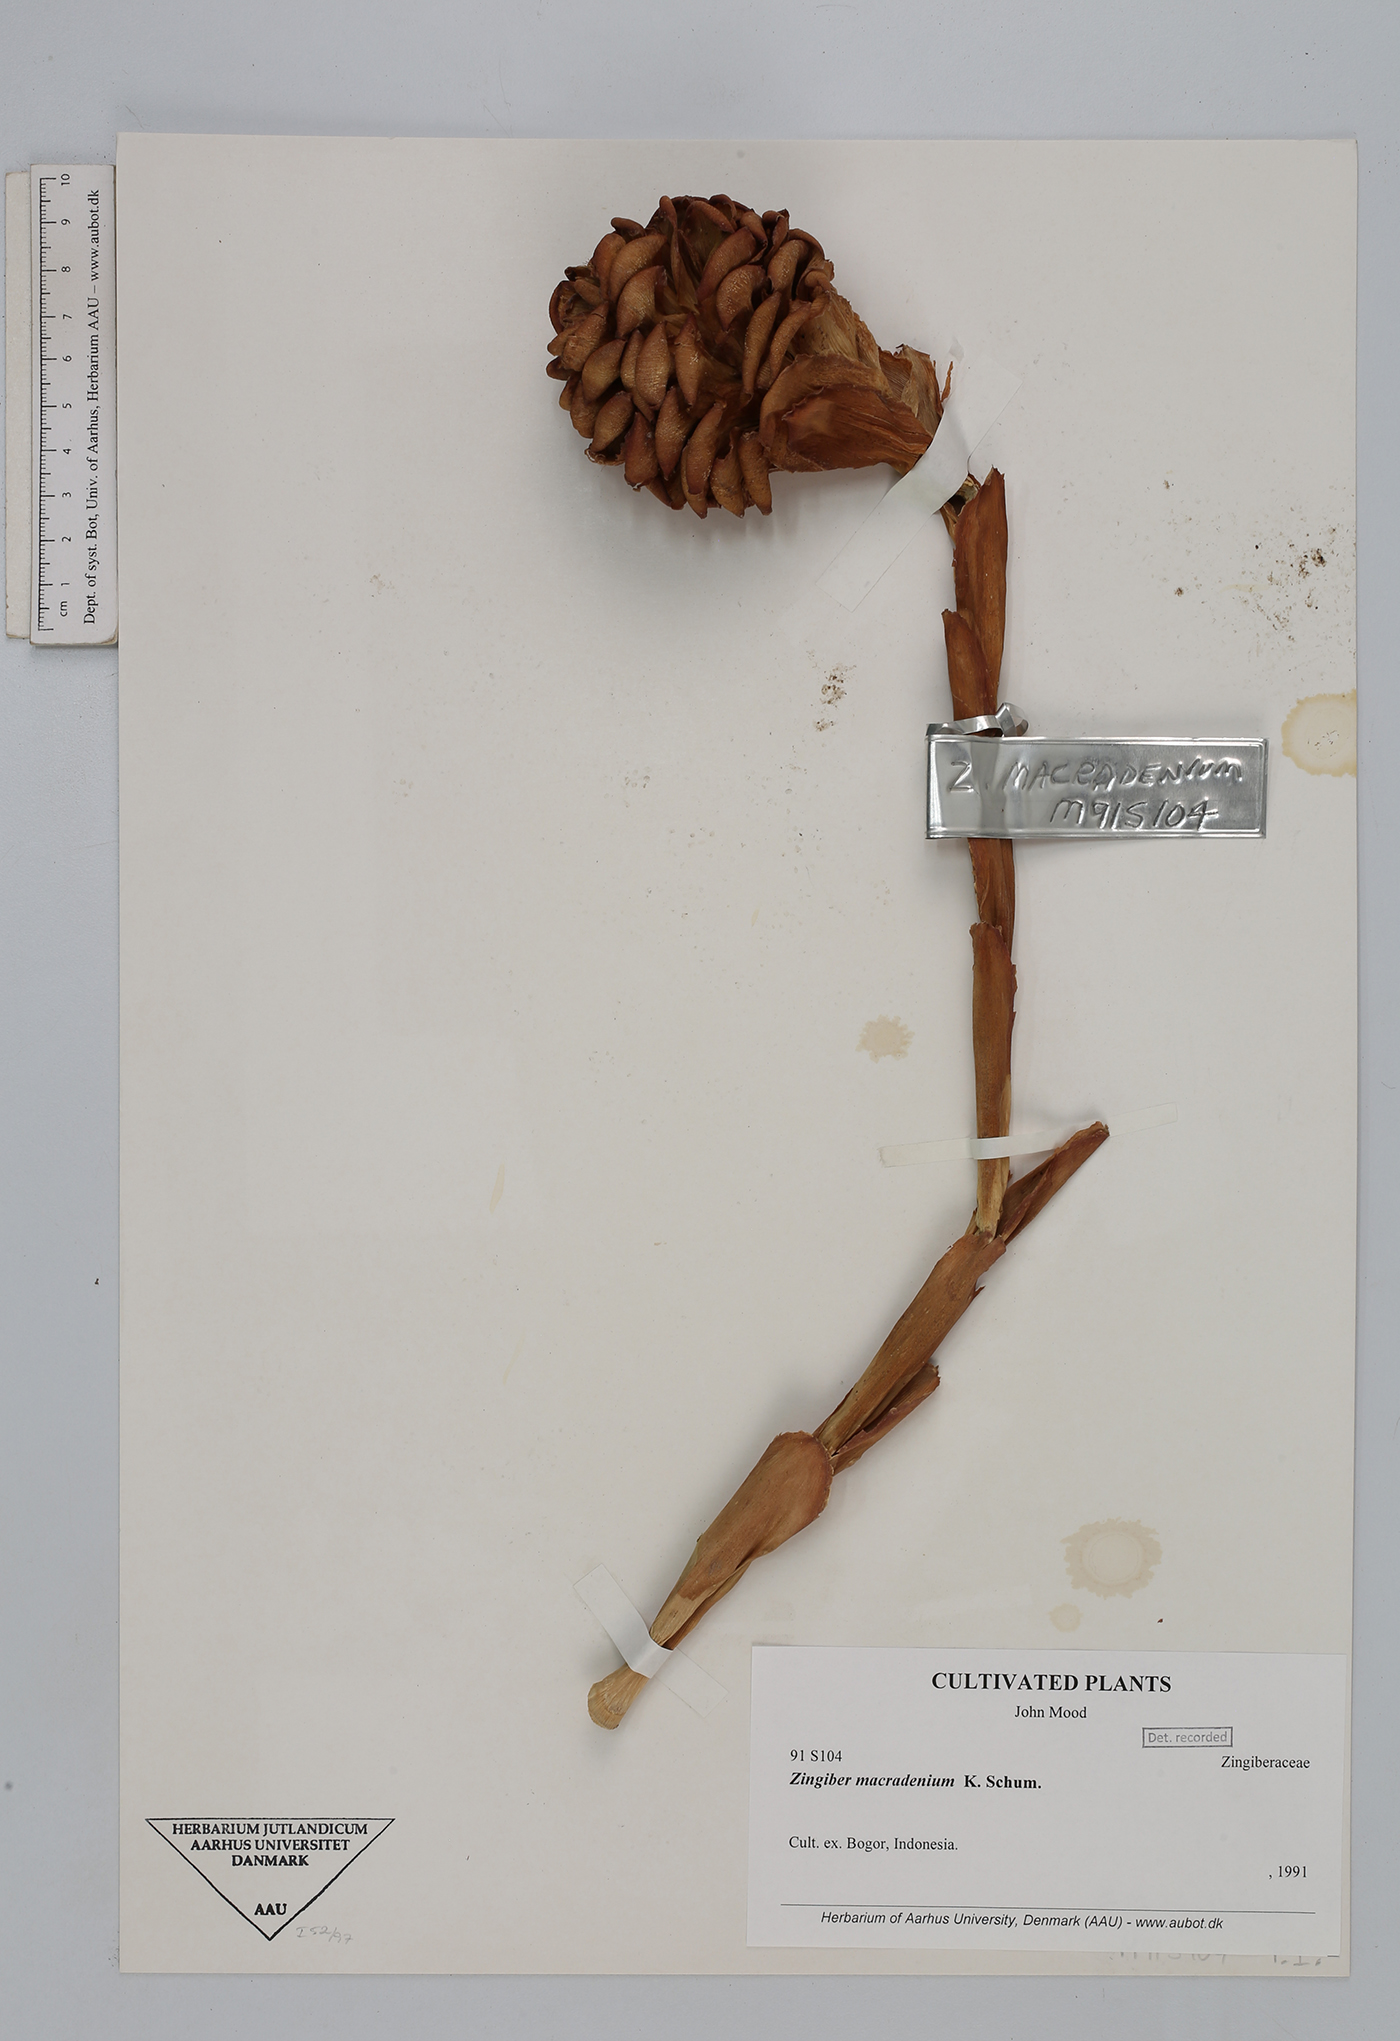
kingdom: Plantae
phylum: Tracheophyta
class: Liliopsida
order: Zingiberales
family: Zingiberaceae
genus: Zingiber
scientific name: Zingiber macradenium
